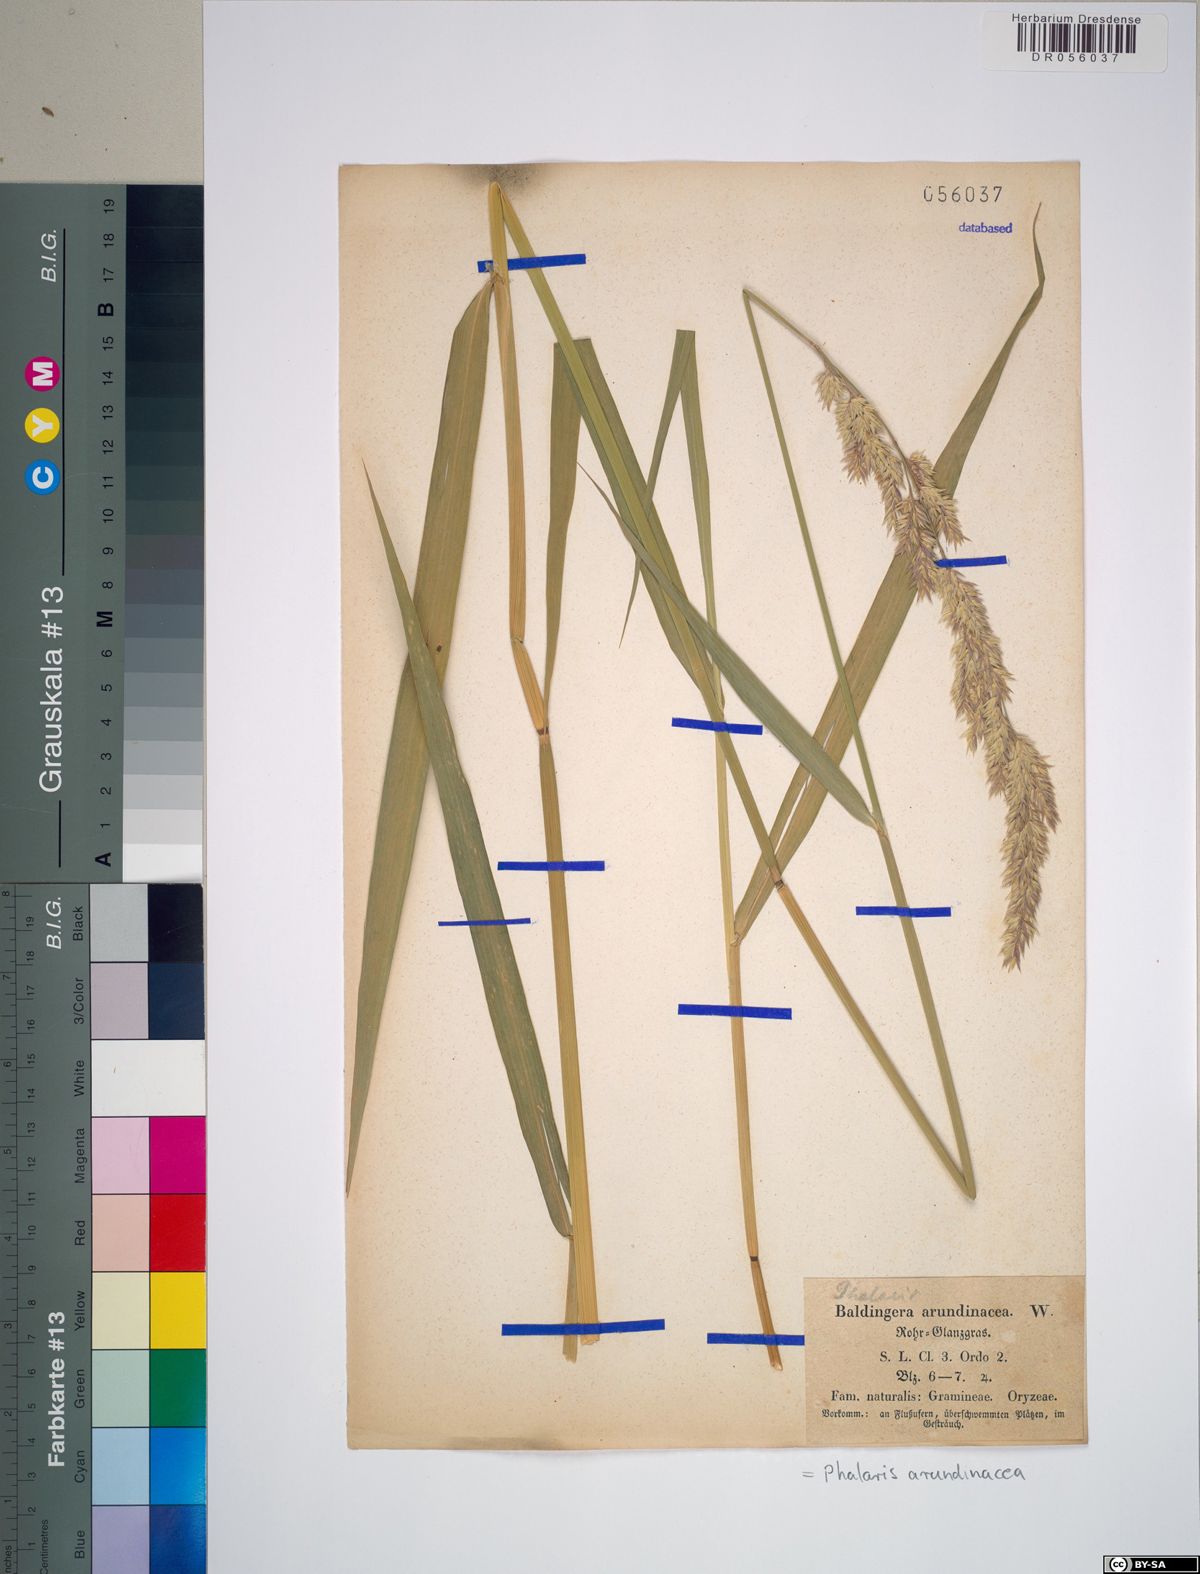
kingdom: Plantae
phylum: Tracheophyta
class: Liliopsida
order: Poales
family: Poaceae
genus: Phalaris
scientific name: Phalaris arundinacea
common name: Reed canary-grass
